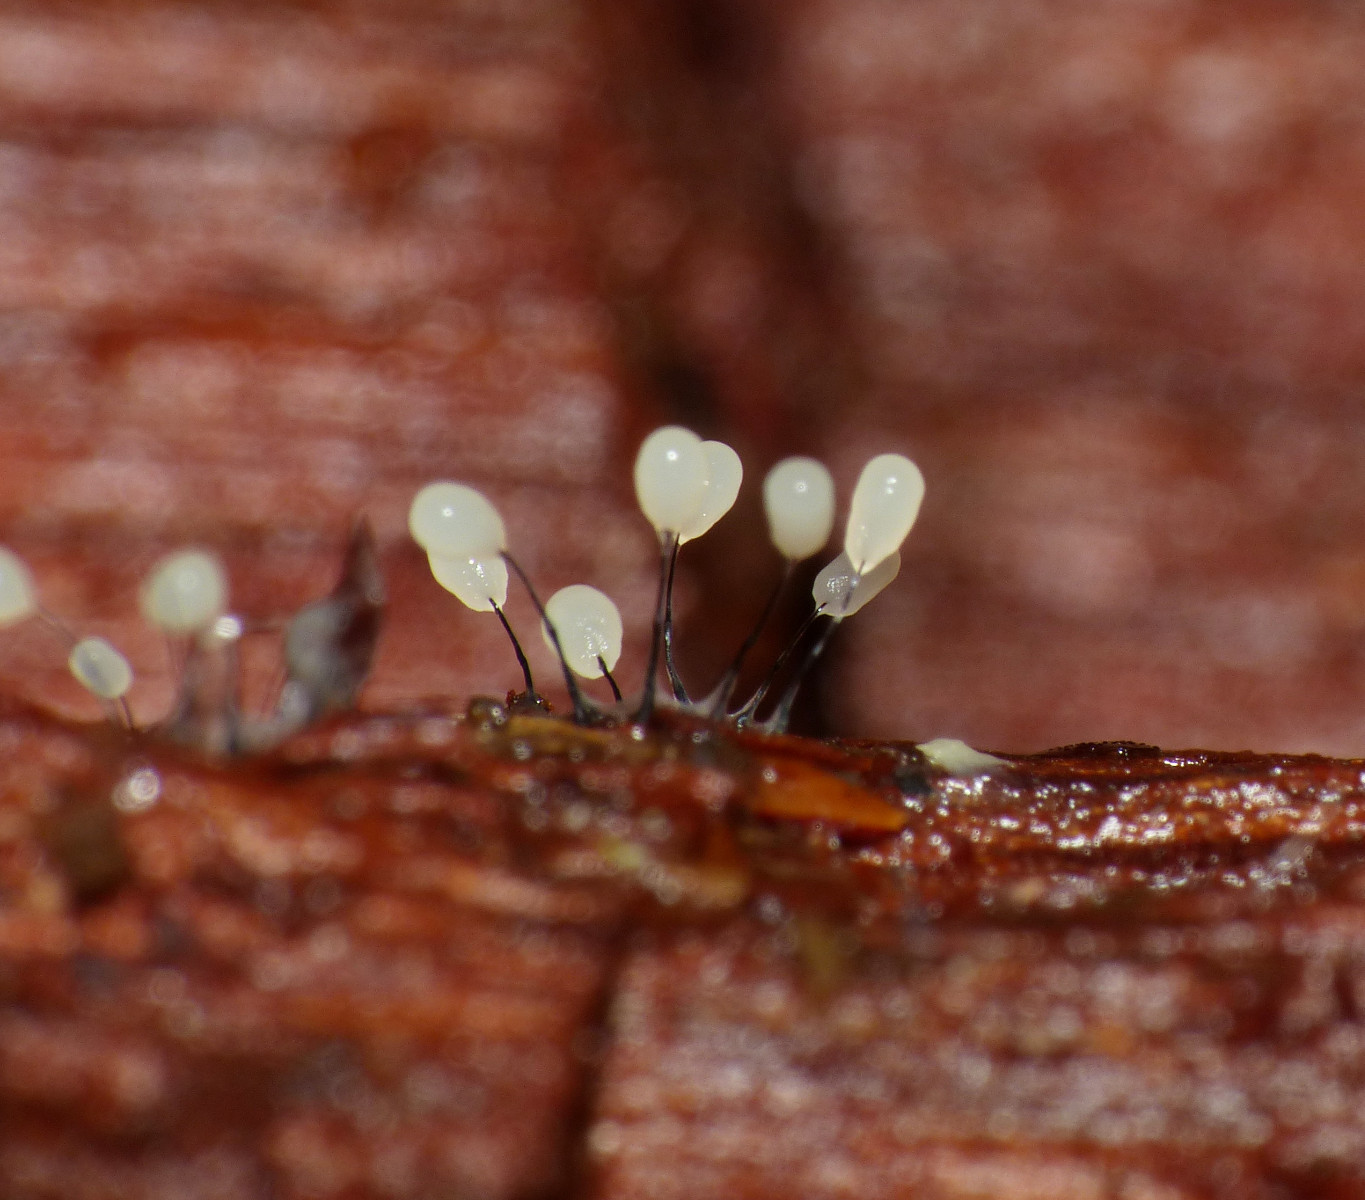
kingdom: Protozoa
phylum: Mycetozoa
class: Myxomycetes
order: Stemonitidales
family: Stemonitidaceae
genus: Comatricha
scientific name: Comatricha
